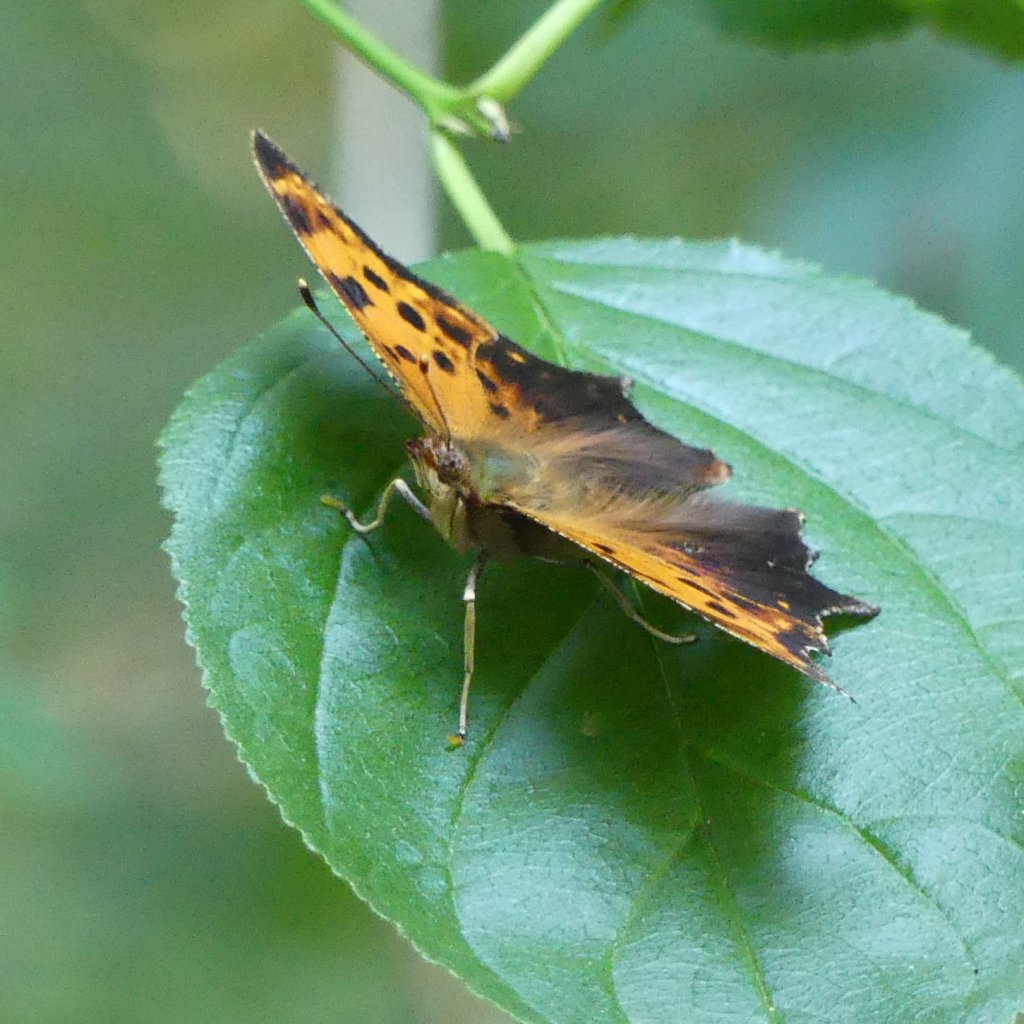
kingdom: Animalia
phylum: Arthropoda
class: Insecta
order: Lepidoptera
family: Nymphalidae
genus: Polygonia
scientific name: Polygonia comma
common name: Eastern Comma
